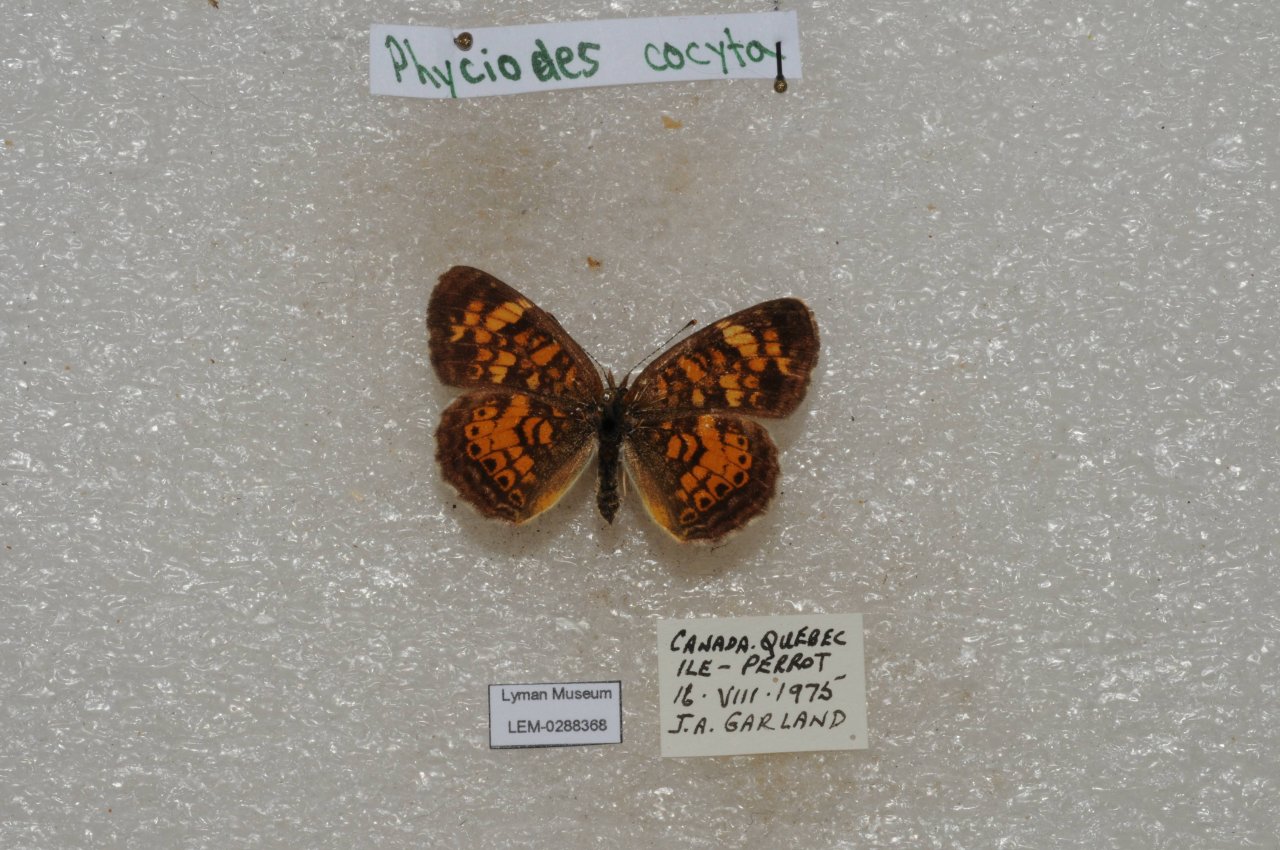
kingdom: Animalia
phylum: Arthropoda
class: Insecta
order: Lepidoptera
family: Nymphalidae
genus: Phyciodes
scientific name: Phyciodes tharos
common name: Northern Crescent
